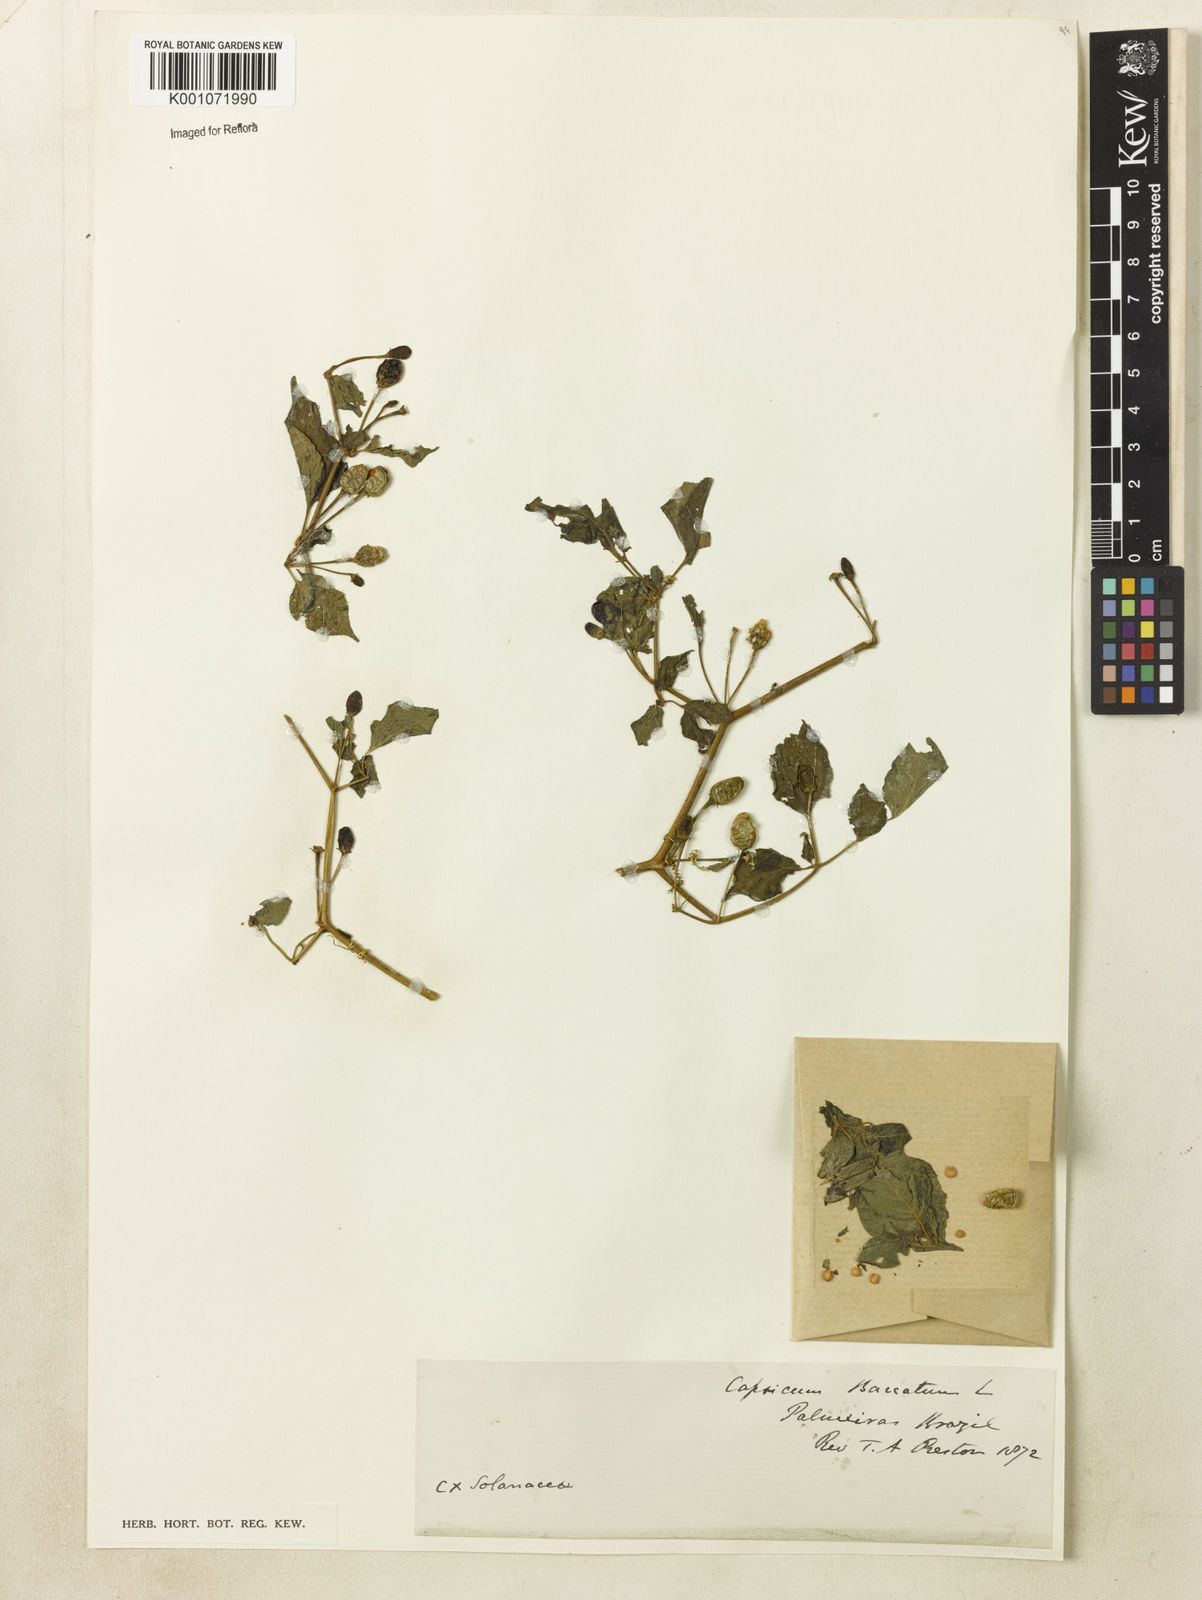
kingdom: Plantae
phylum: Tracheophyta
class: Magnoliopsida
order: Solanales
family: Solanaceae
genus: Capsicum
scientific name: Capsicum baccatum
